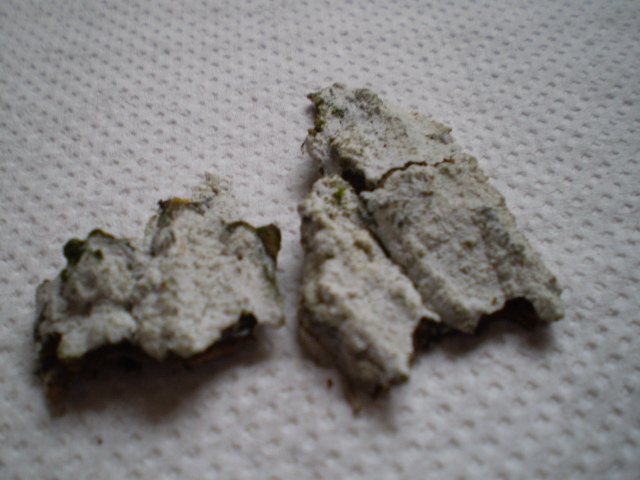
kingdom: Fungi
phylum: Basidiomycota
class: Agaricomycetes
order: Corticiales
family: Corticiaceae
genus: Lyomyces
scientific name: Lyomyces sambuci
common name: almindelig hyldehinde
